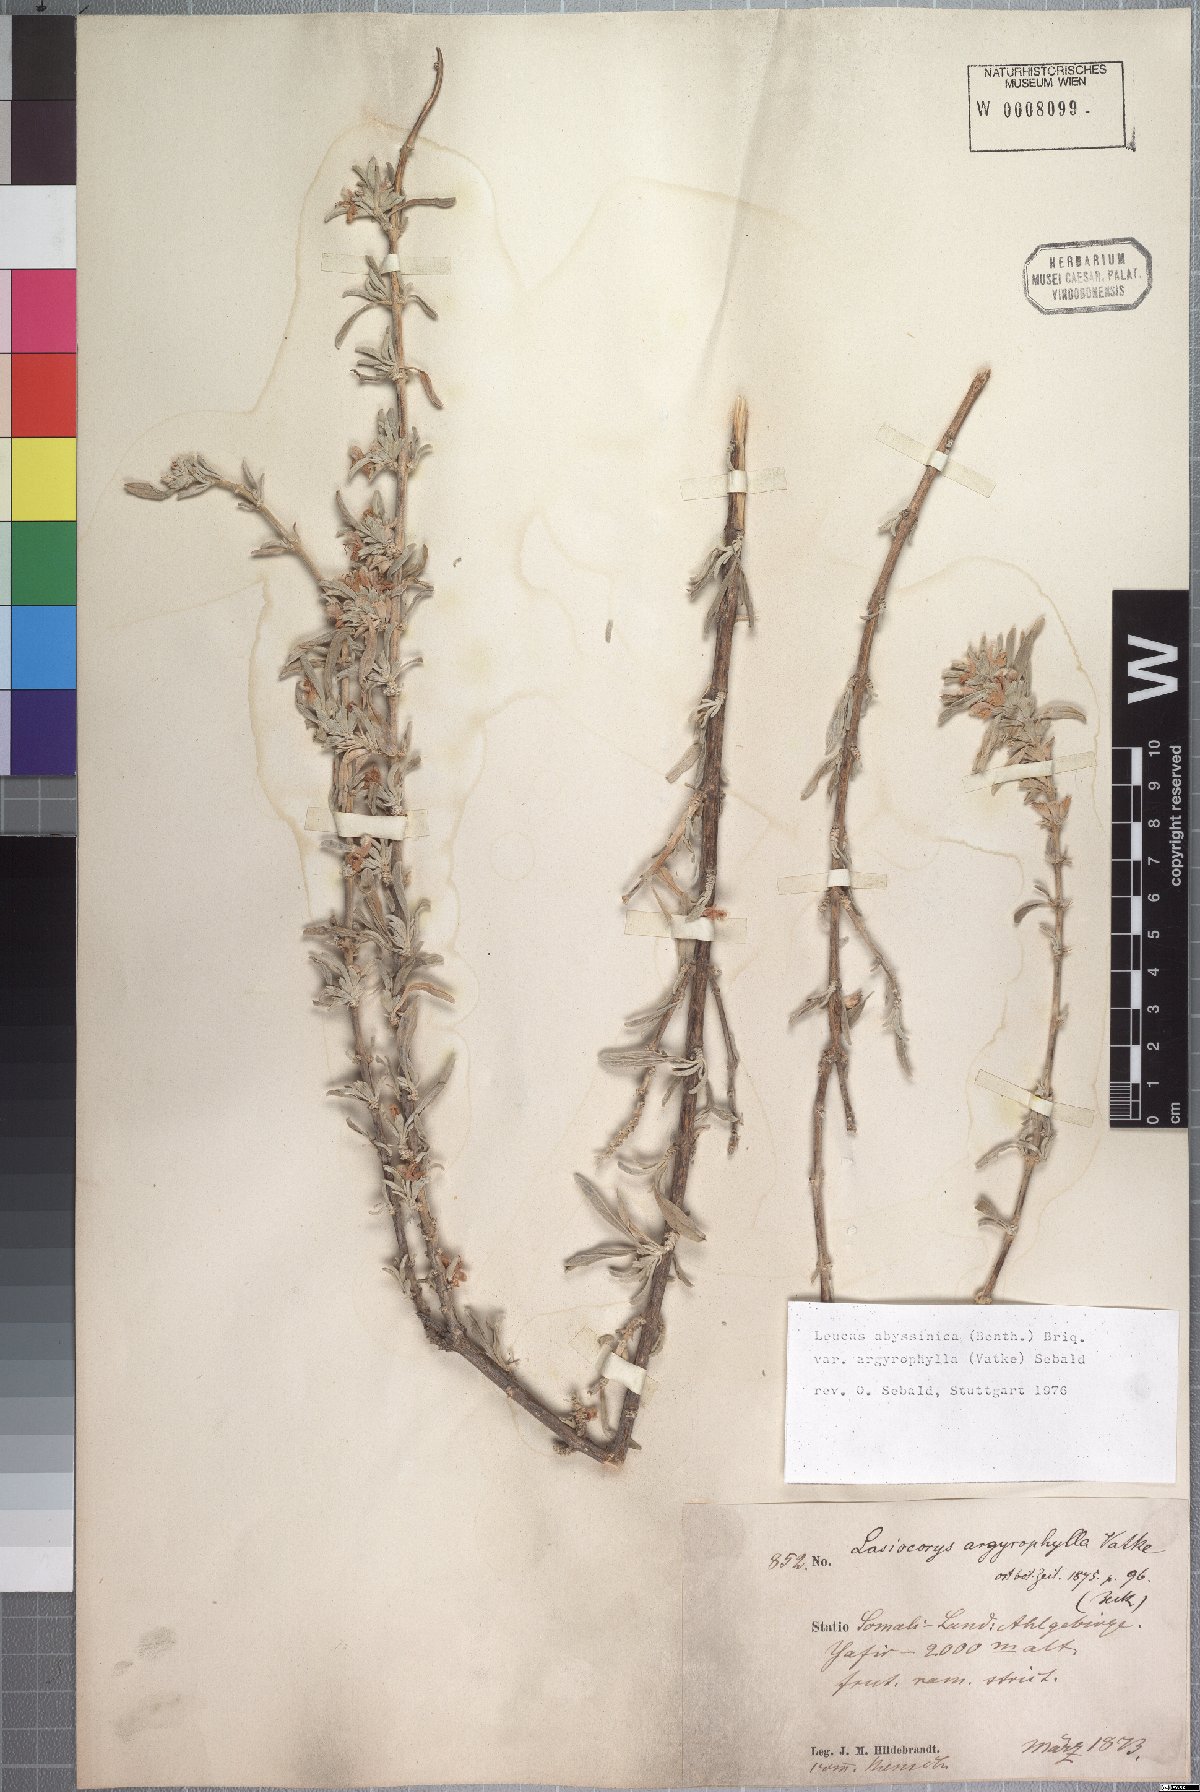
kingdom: Plantae
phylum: Tracheophyta
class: Magnoliopsida
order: Lamiales
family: Lamiaceae
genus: Leucas
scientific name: Leucas abyssinica
